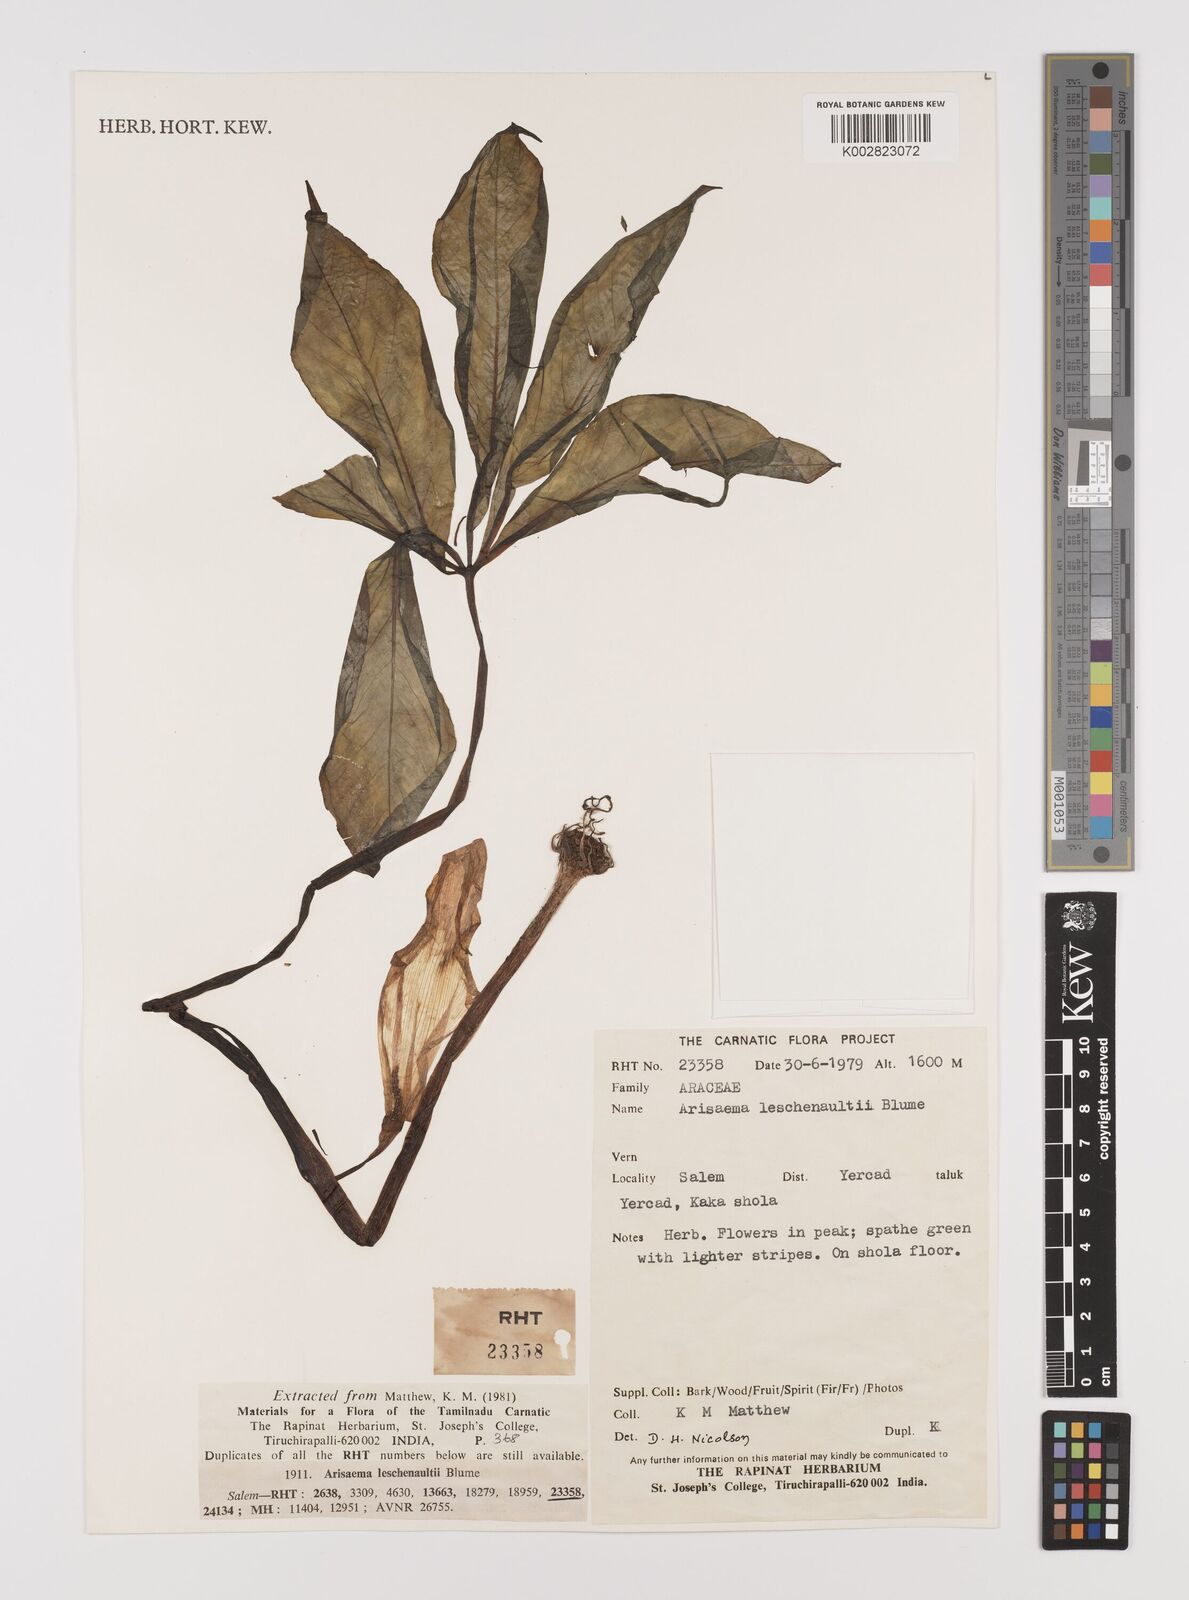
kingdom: Plantae
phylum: Tracheophyta
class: Liliopsida
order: Alismatales
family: Araceae
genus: Arisaema
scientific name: Arisaema leschenaultii
